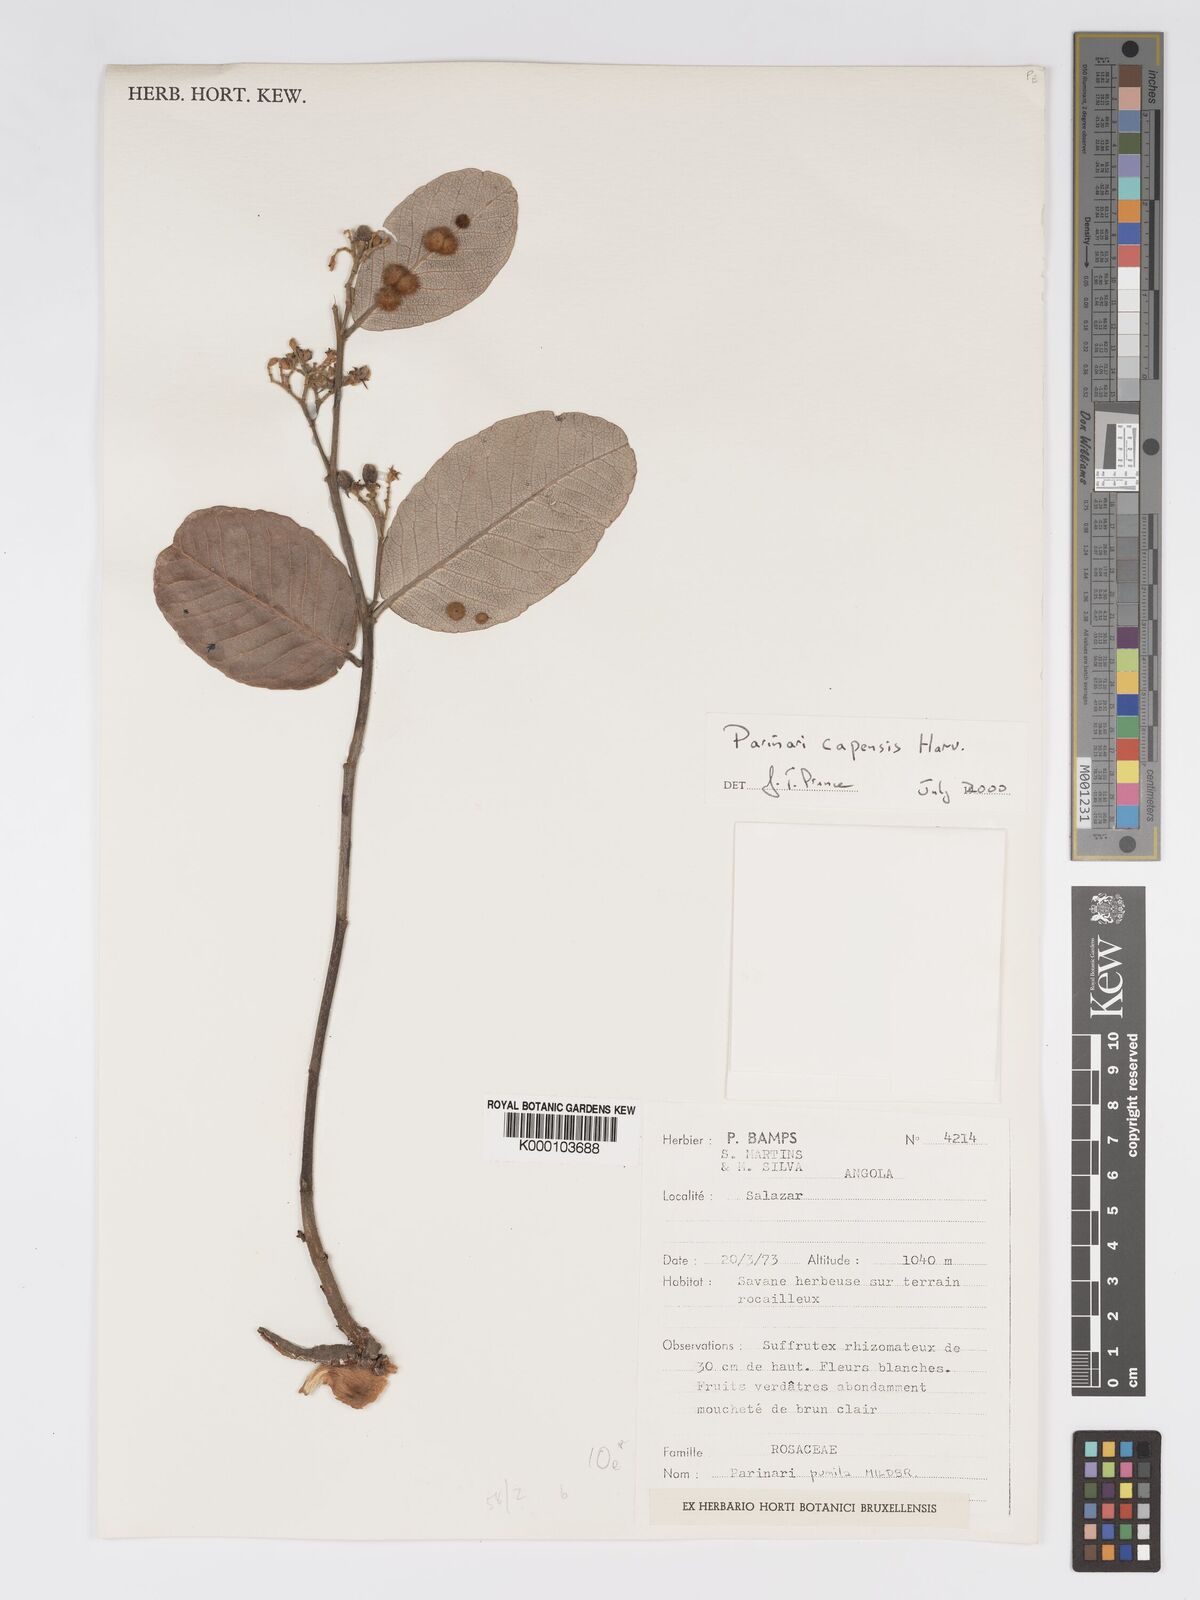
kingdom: Plantae
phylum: Tracheophyta
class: Magnoliopsida
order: Malpighiales
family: Chrysobalanaceae
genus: Parinari
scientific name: Parinari capensis
